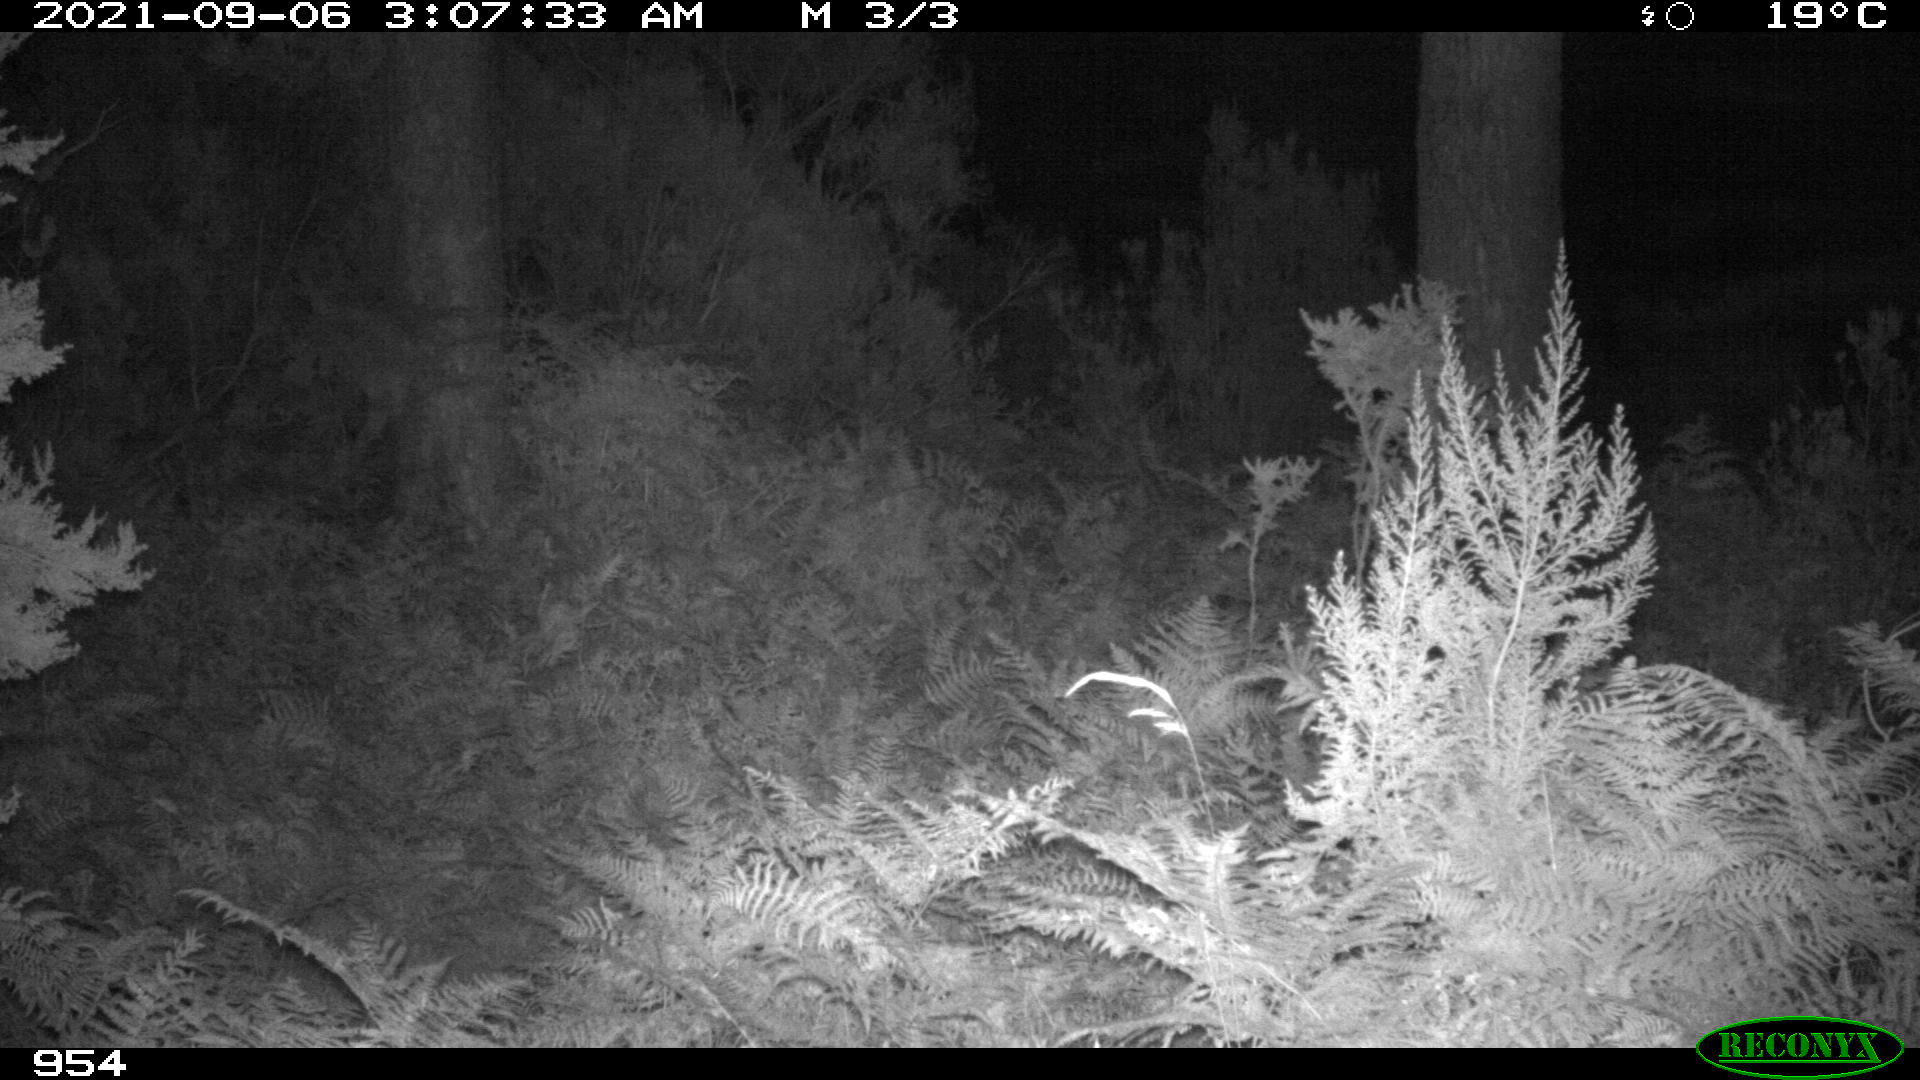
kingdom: Animalia
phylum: Chordata
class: Mammalia
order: Perissodactyla
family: Equidae
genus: Equus
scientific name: Equus caballus
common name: Horse
